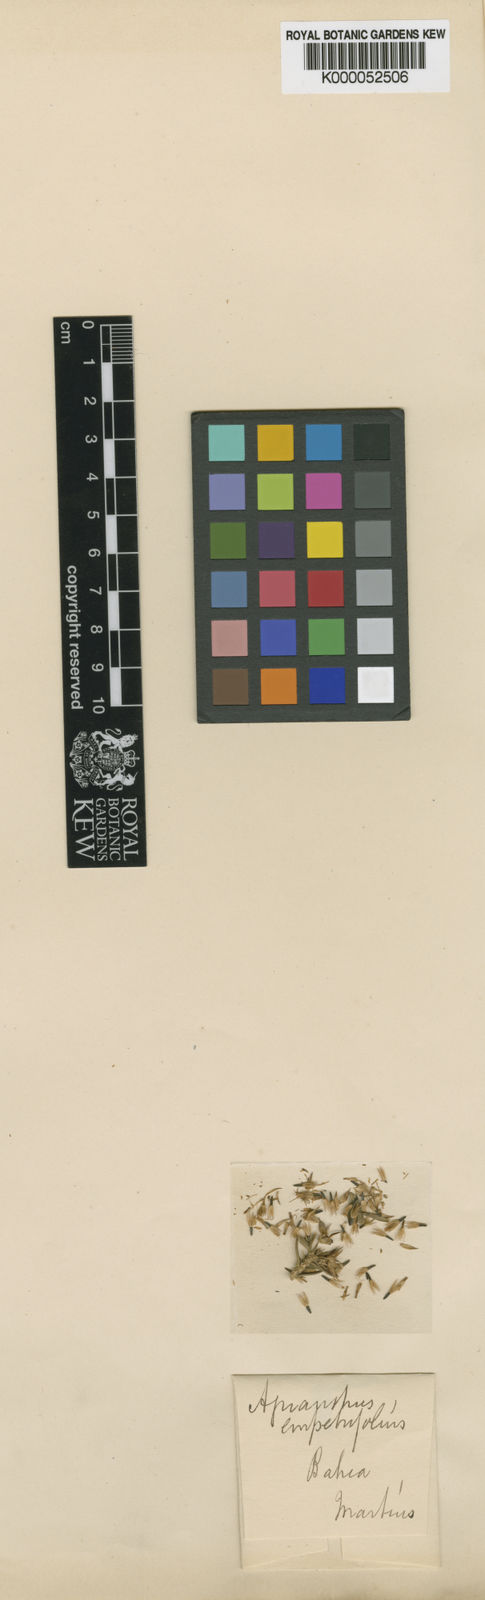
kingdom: Plantae
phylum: Tracheophyta
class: Magnoliopsida
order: Asterales
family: Asteraceae
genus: Agrianthus
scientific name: Agrianthus
